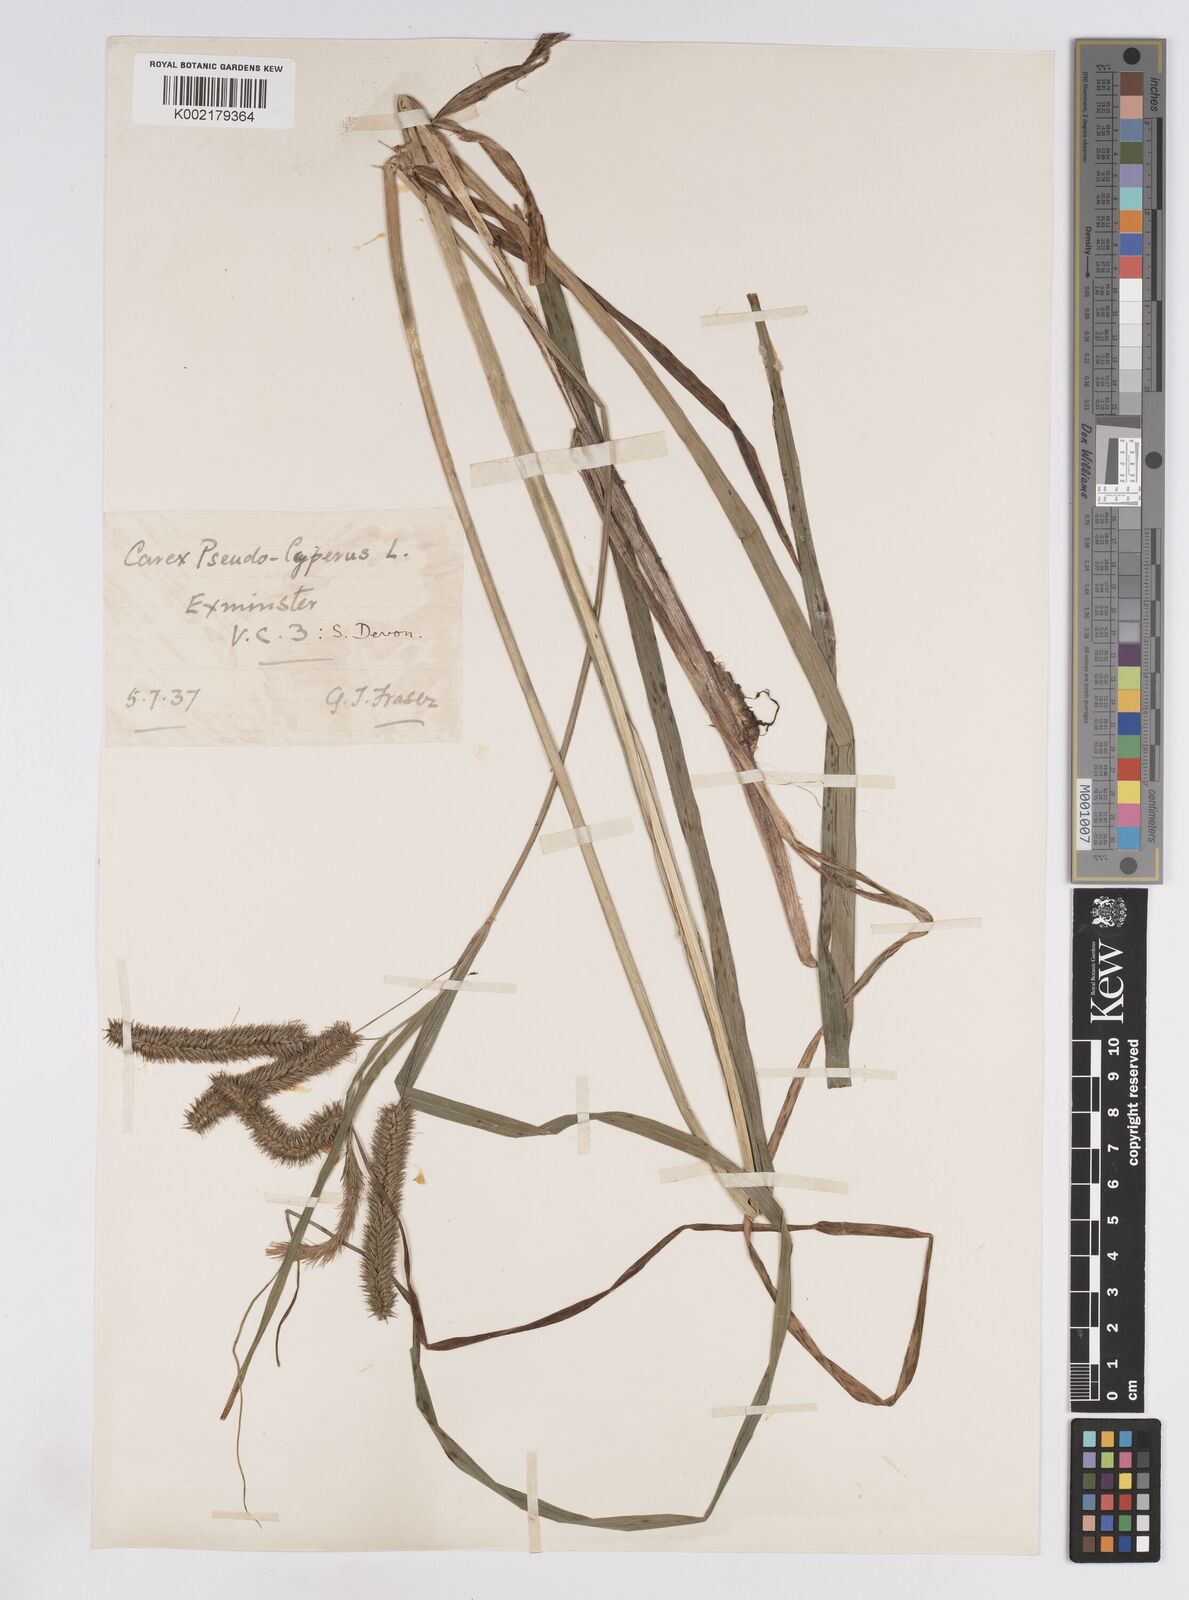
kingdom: Plantae
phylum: Tracheophyta
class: Liliopsida
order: Poales
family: Cyperaceae
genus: Carex
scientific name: Carex pseudocyperus
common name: Cyperus sedge
